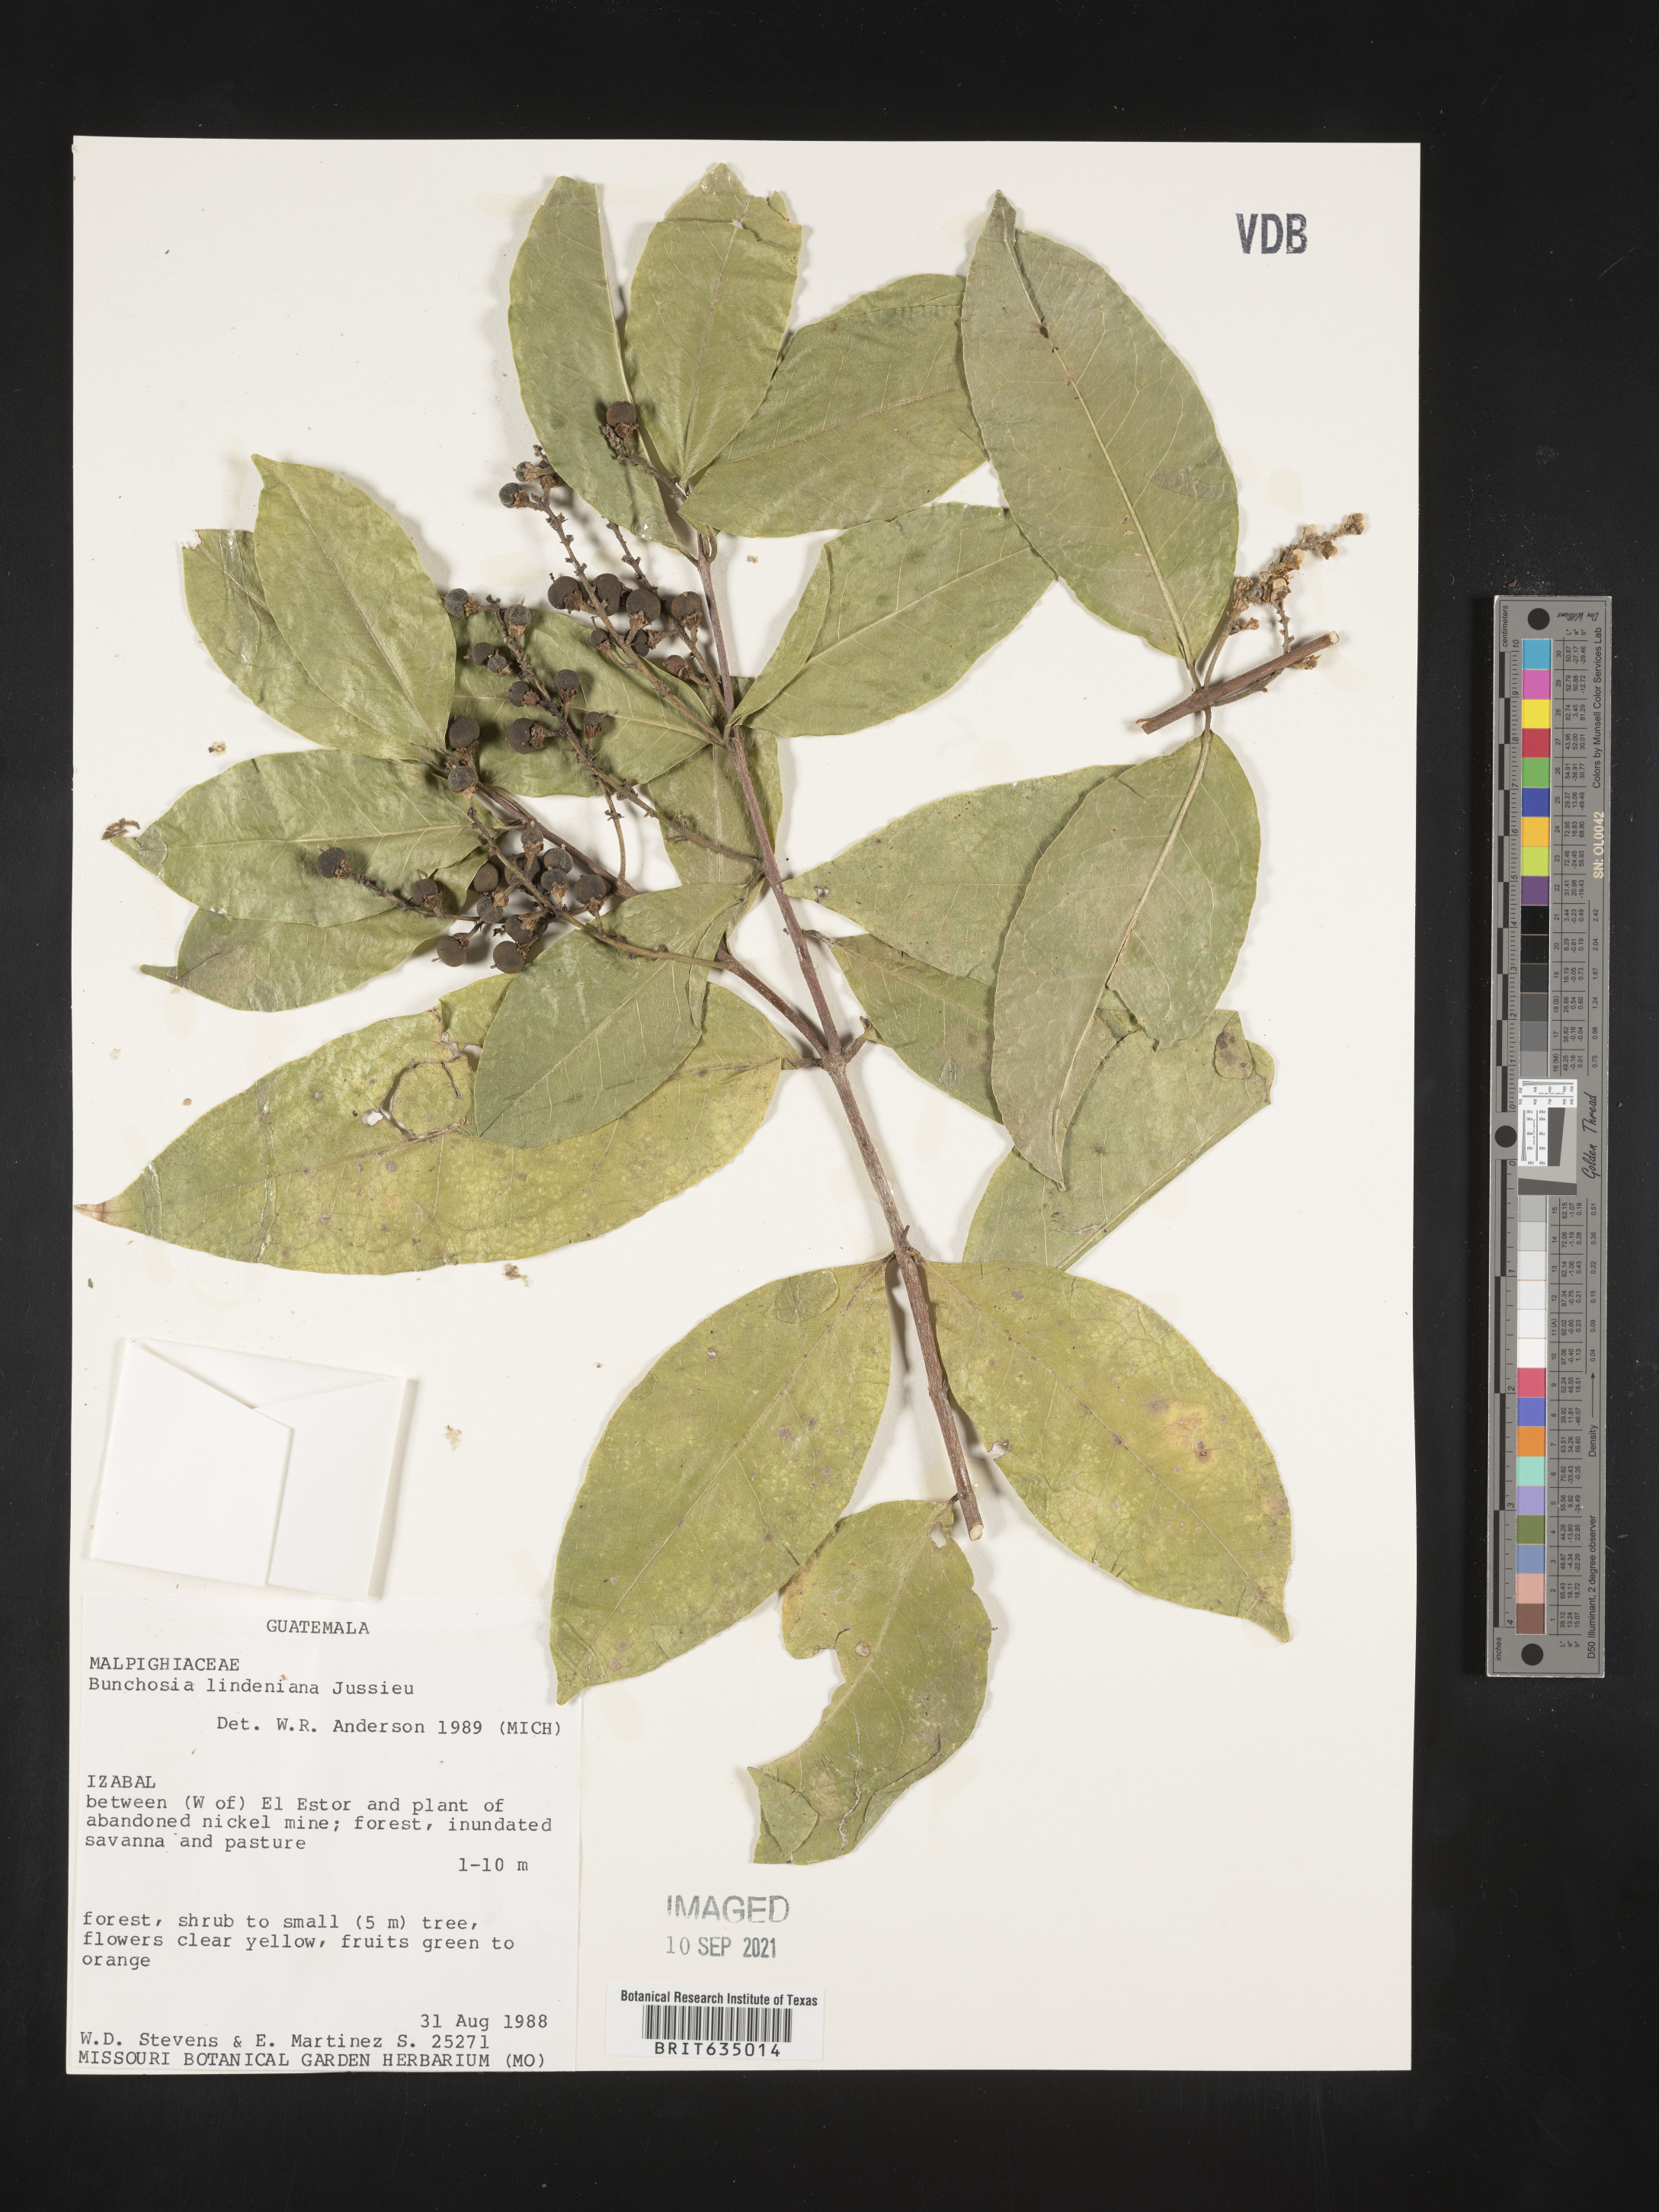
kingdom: Plantae
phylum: Tracheophyta
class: Magnoliopsida
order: Malpighiales
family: Malpighiaceae
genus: Bunchosia
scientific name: Bunchosia
